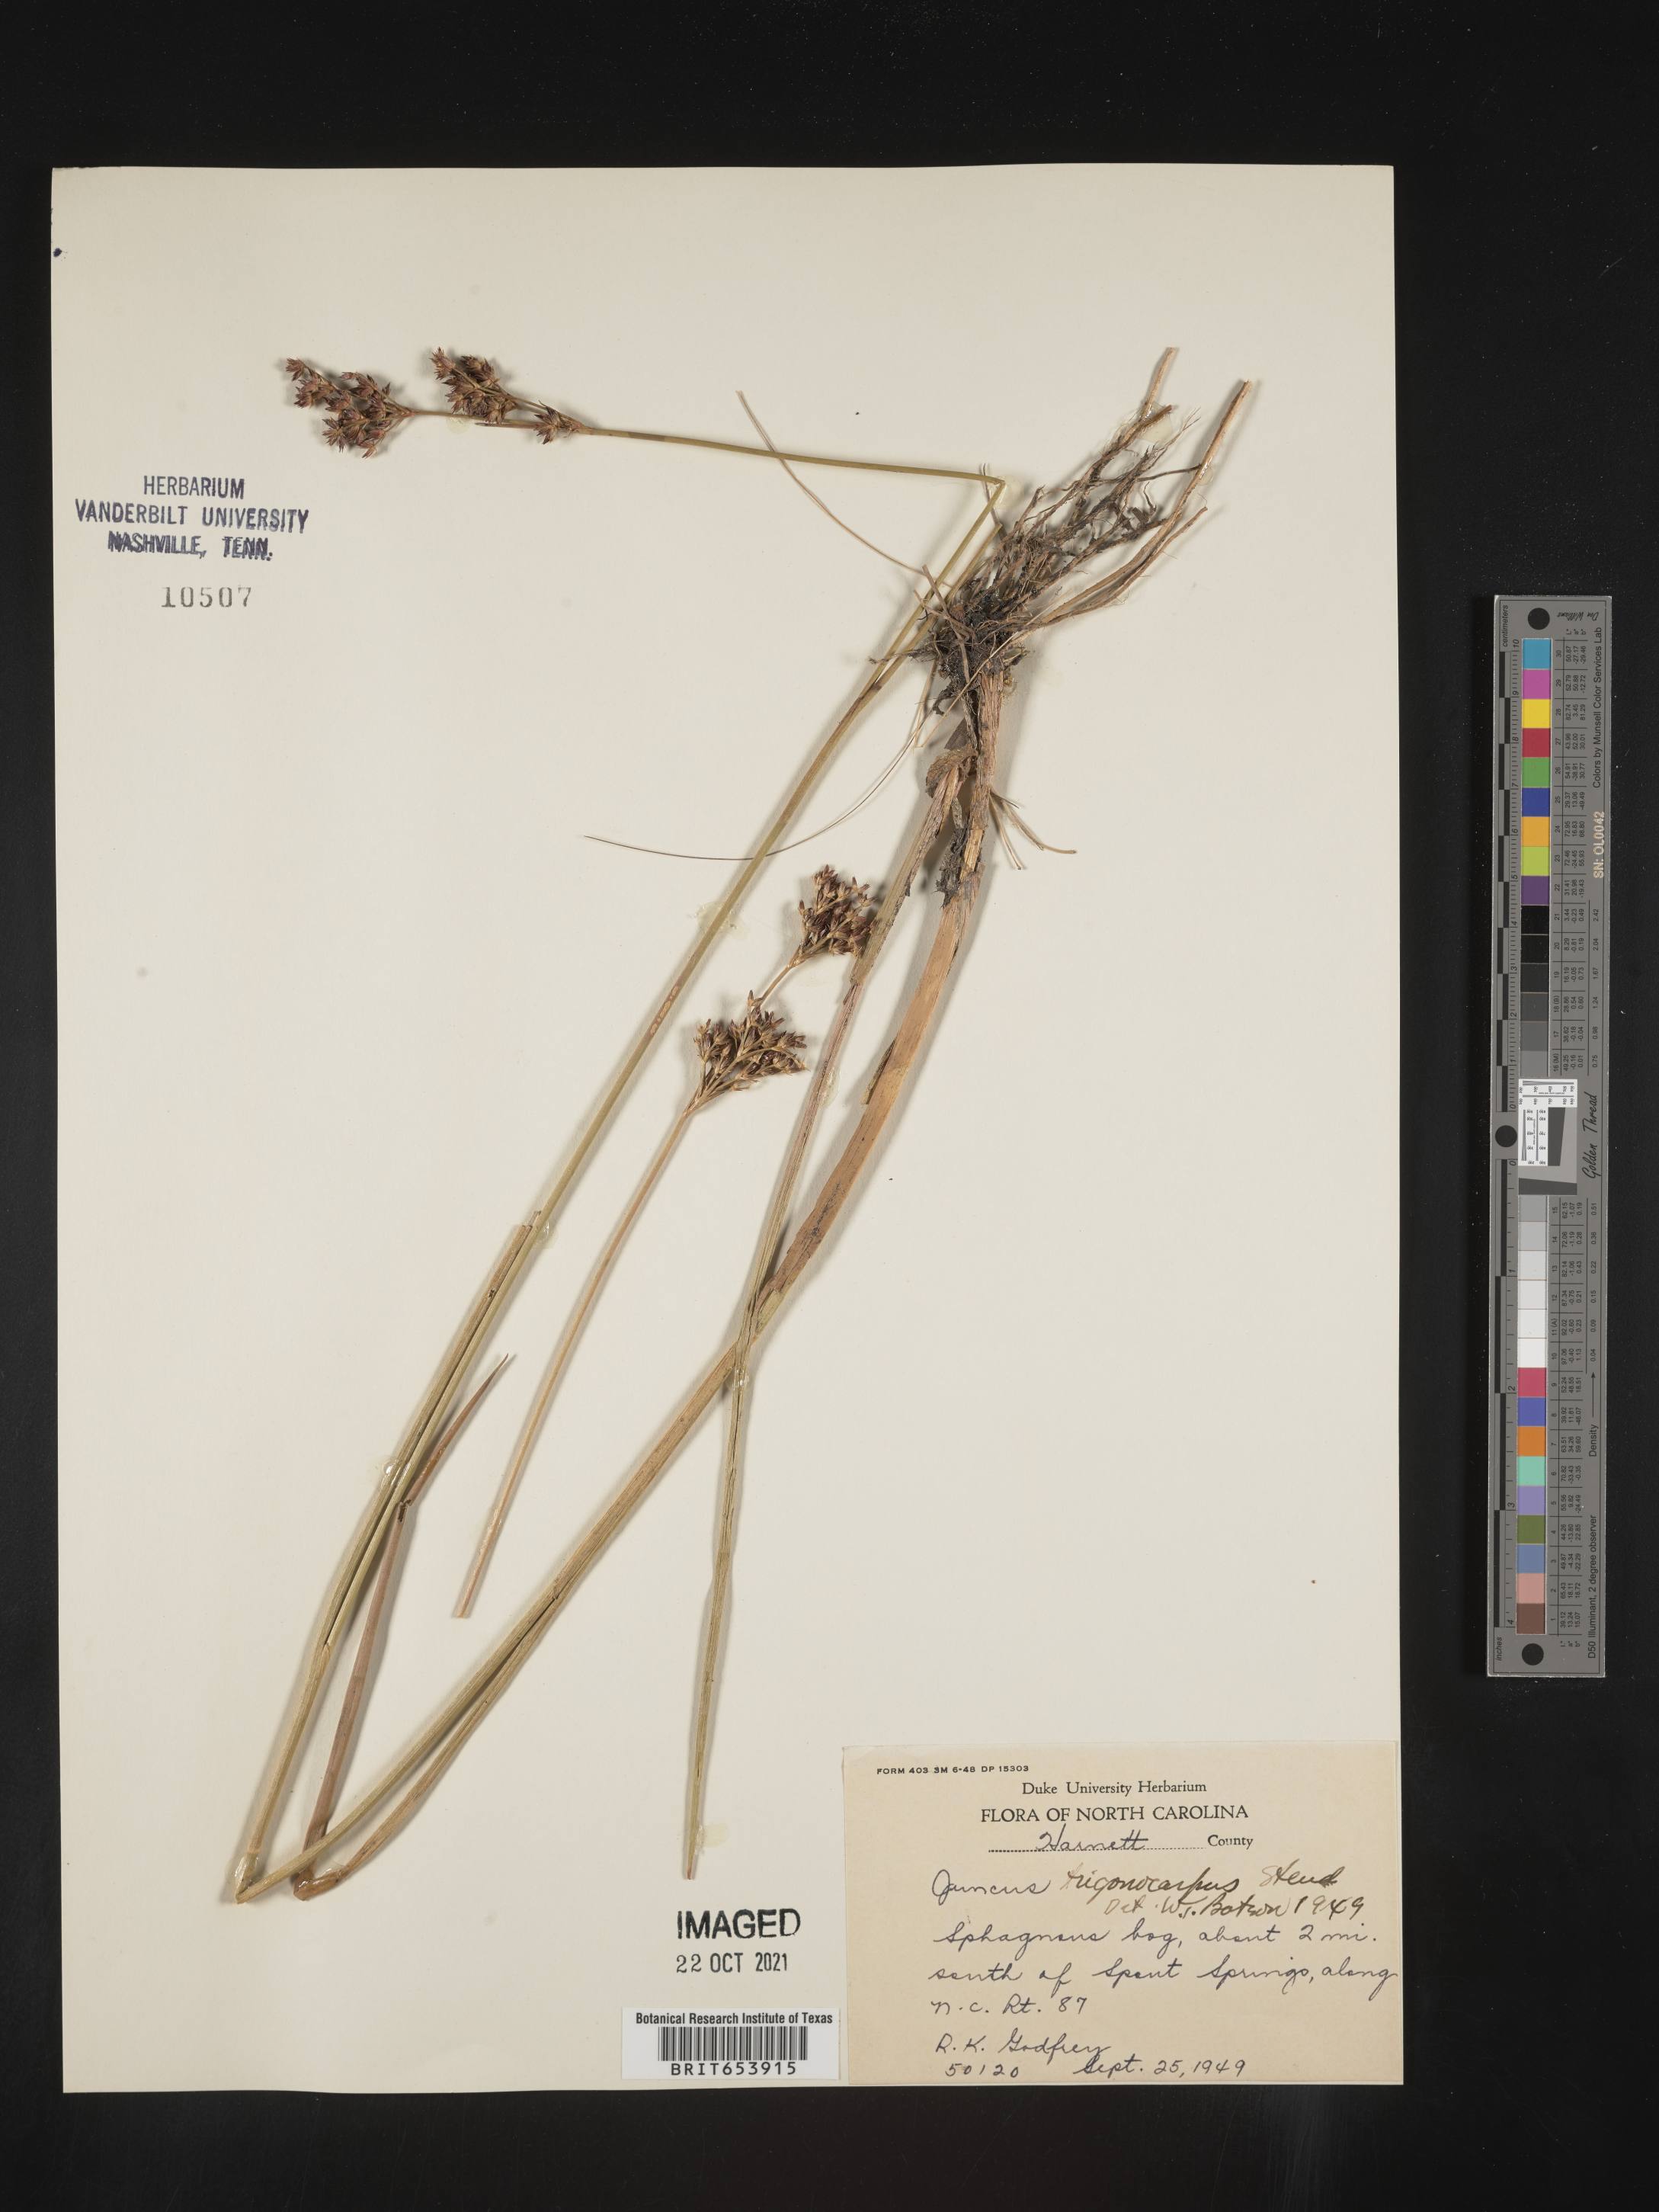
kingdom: Plantae
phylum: Tracheophyta
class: Liliopsida
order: Poales
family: Juncaceae
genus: Juncus
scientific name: Juncus trigonocarpus
